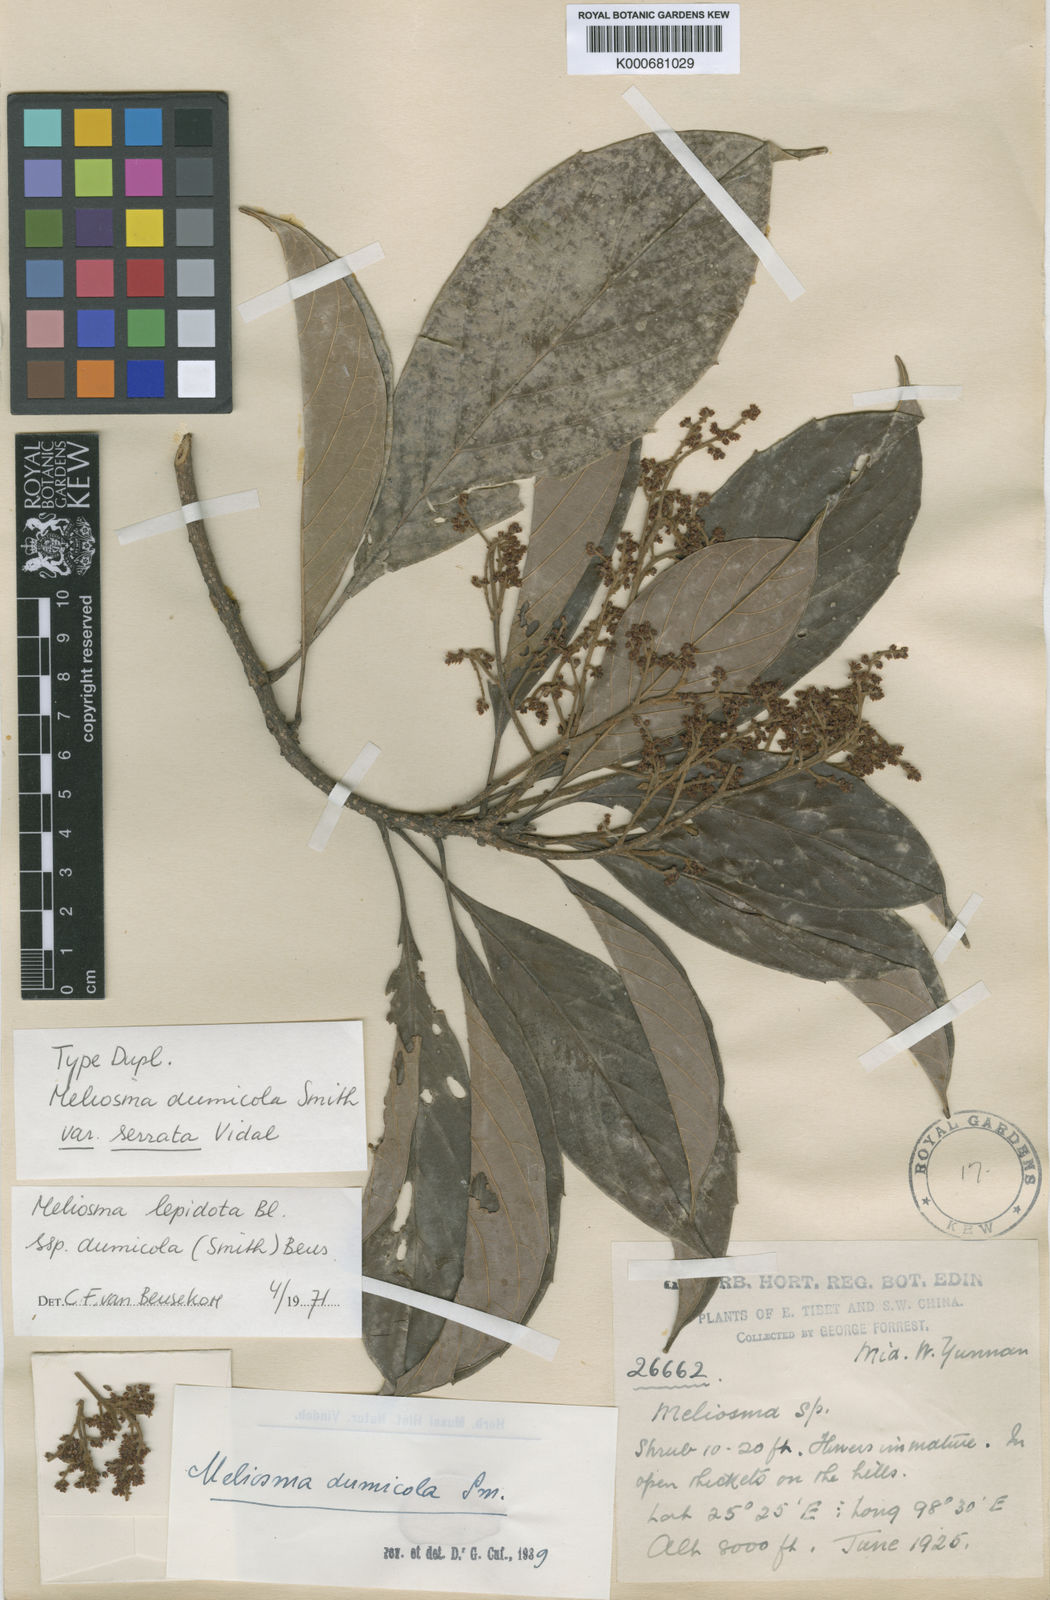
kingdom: Plantae
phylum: Tracheophyta
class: Magnoliopsida
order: Proteales
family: Sabiaceae
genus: Meliosma
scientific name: Meliosma dumicola
